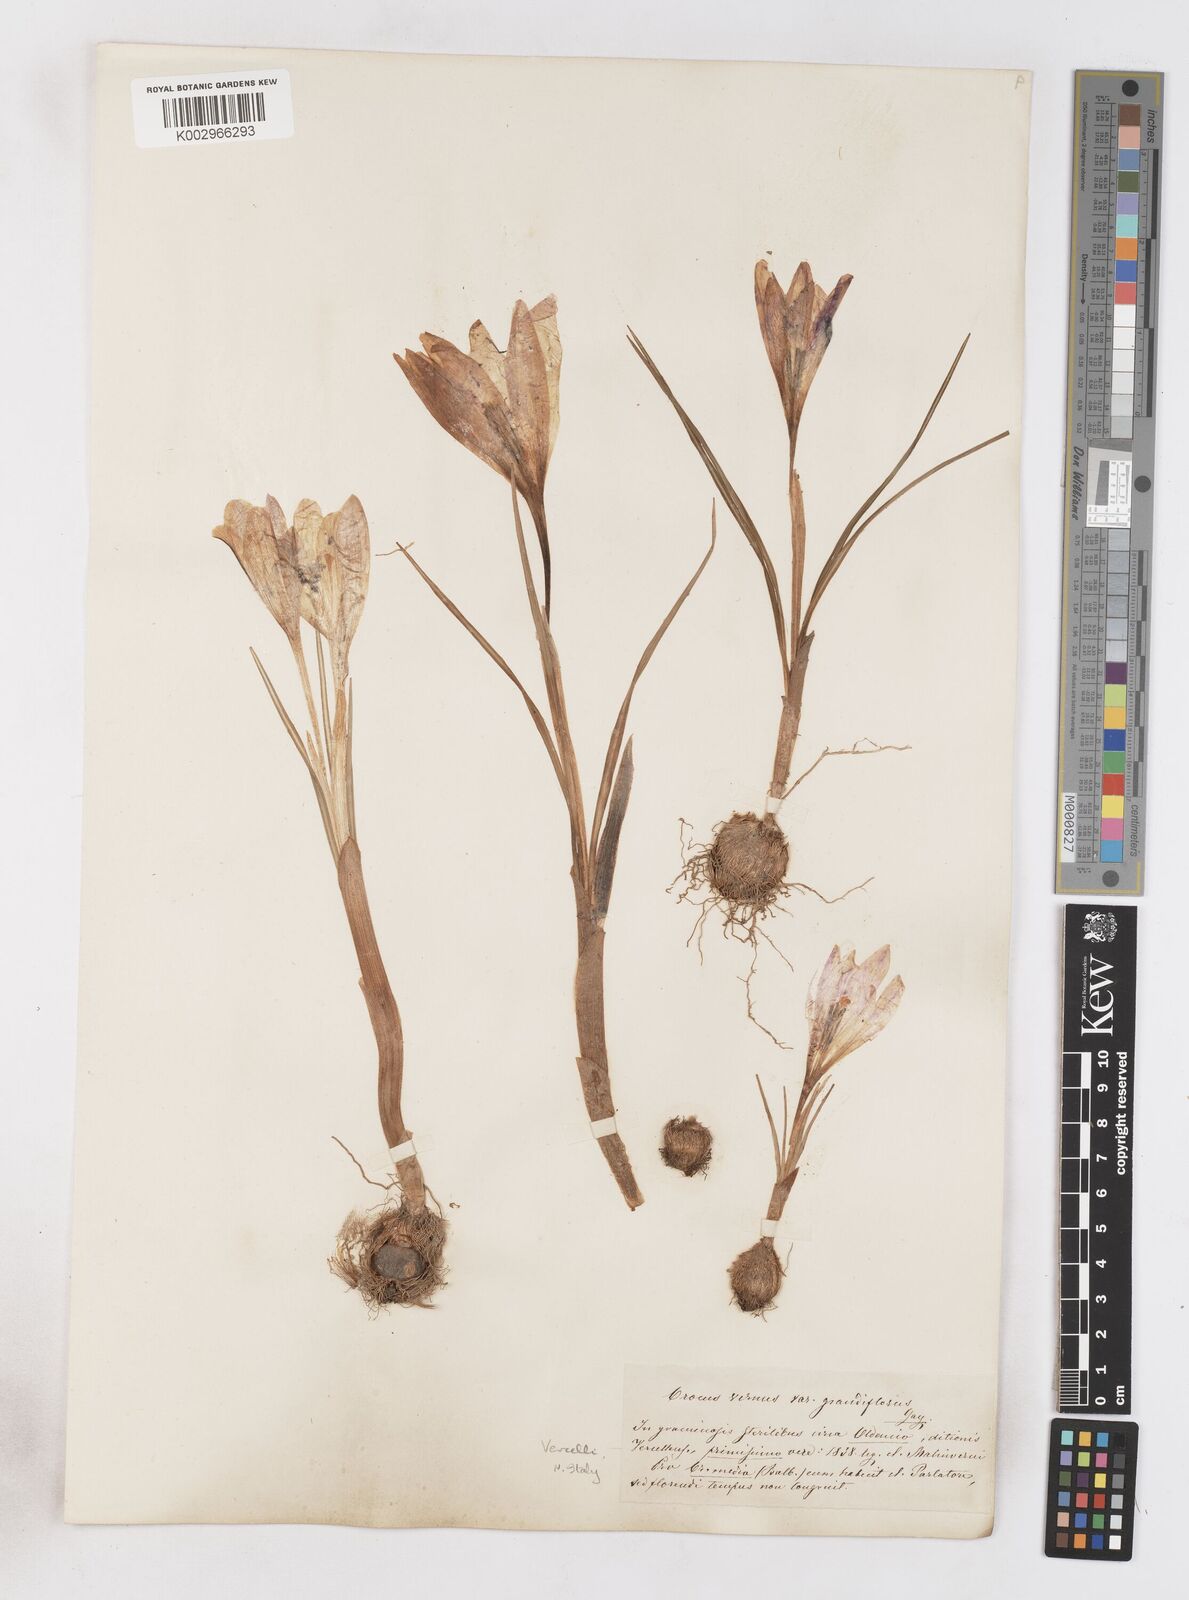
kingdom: Plantae
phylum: Tracheophyta
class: Liliopsida
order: Asparagales
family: Iridaceae
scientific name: Iridaceae
